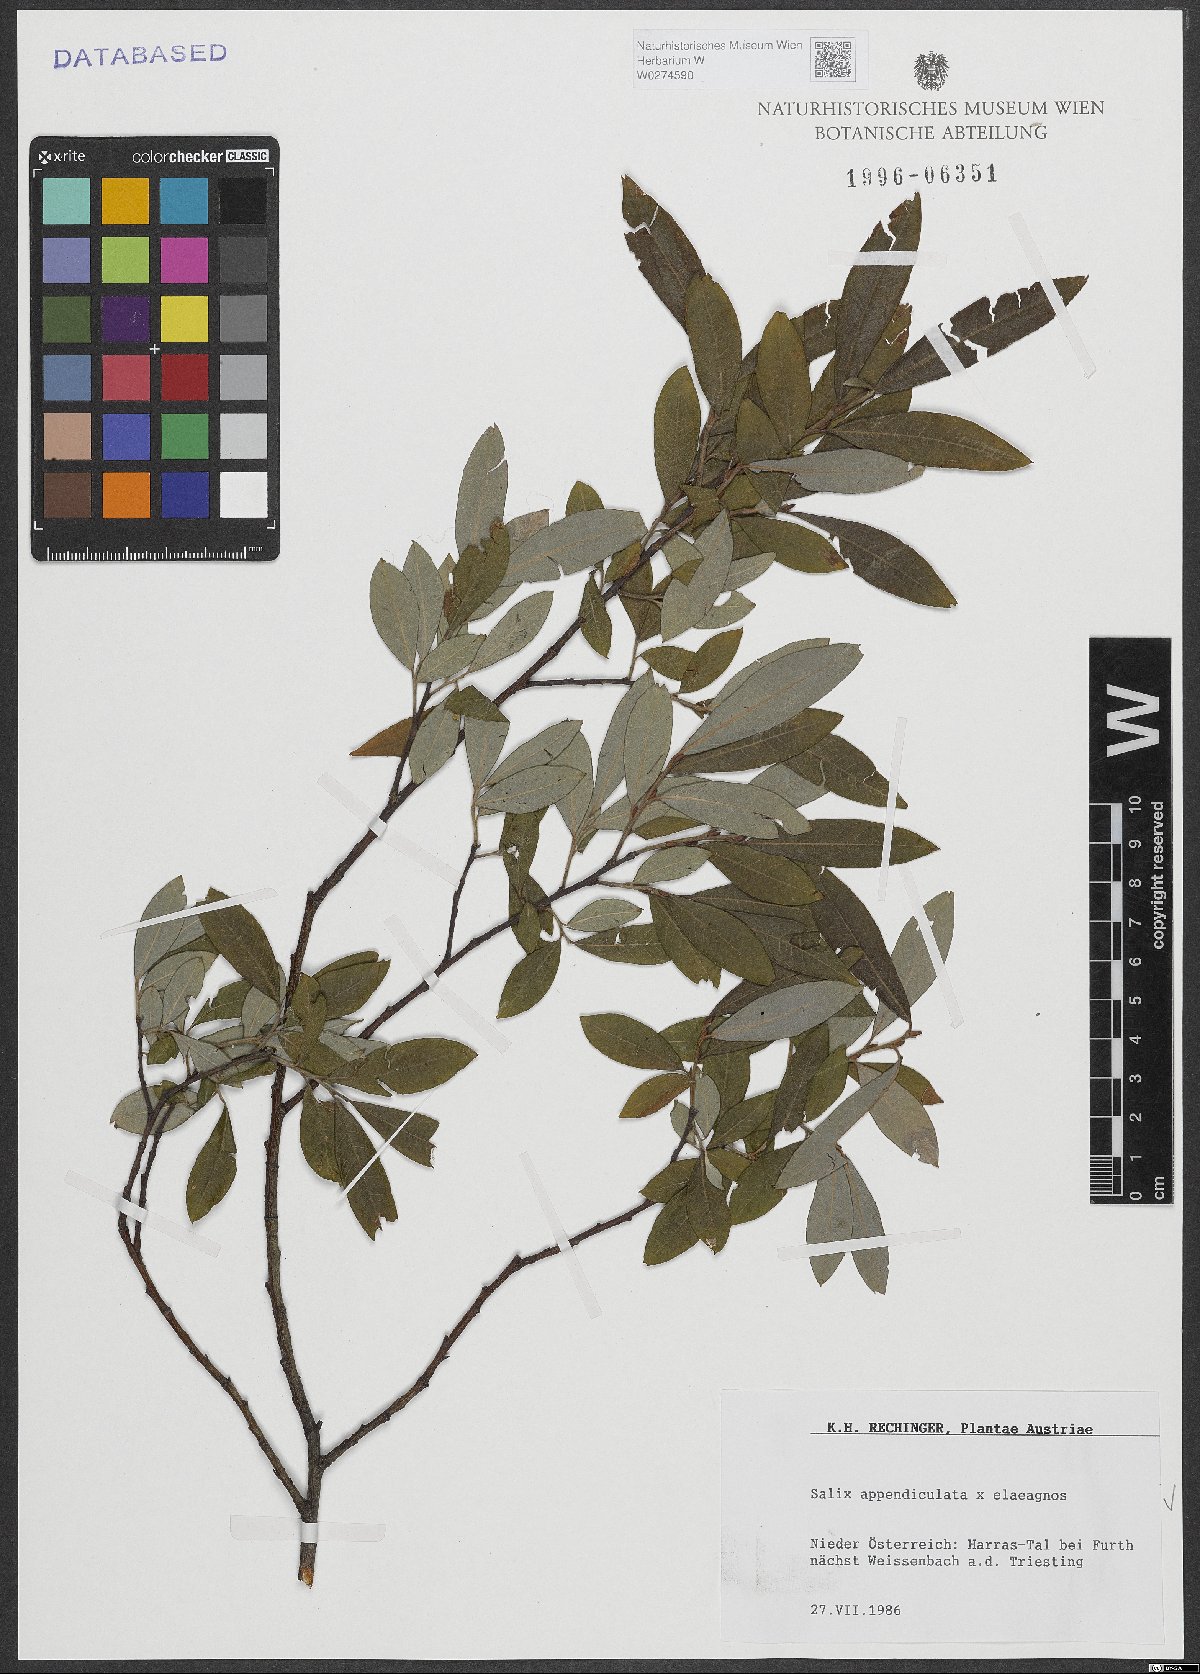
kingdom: Plantae
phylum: Tracheophyta
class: Magnoliopsida
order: Malpighiales
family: Salicaceae
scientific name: Salicaceae
